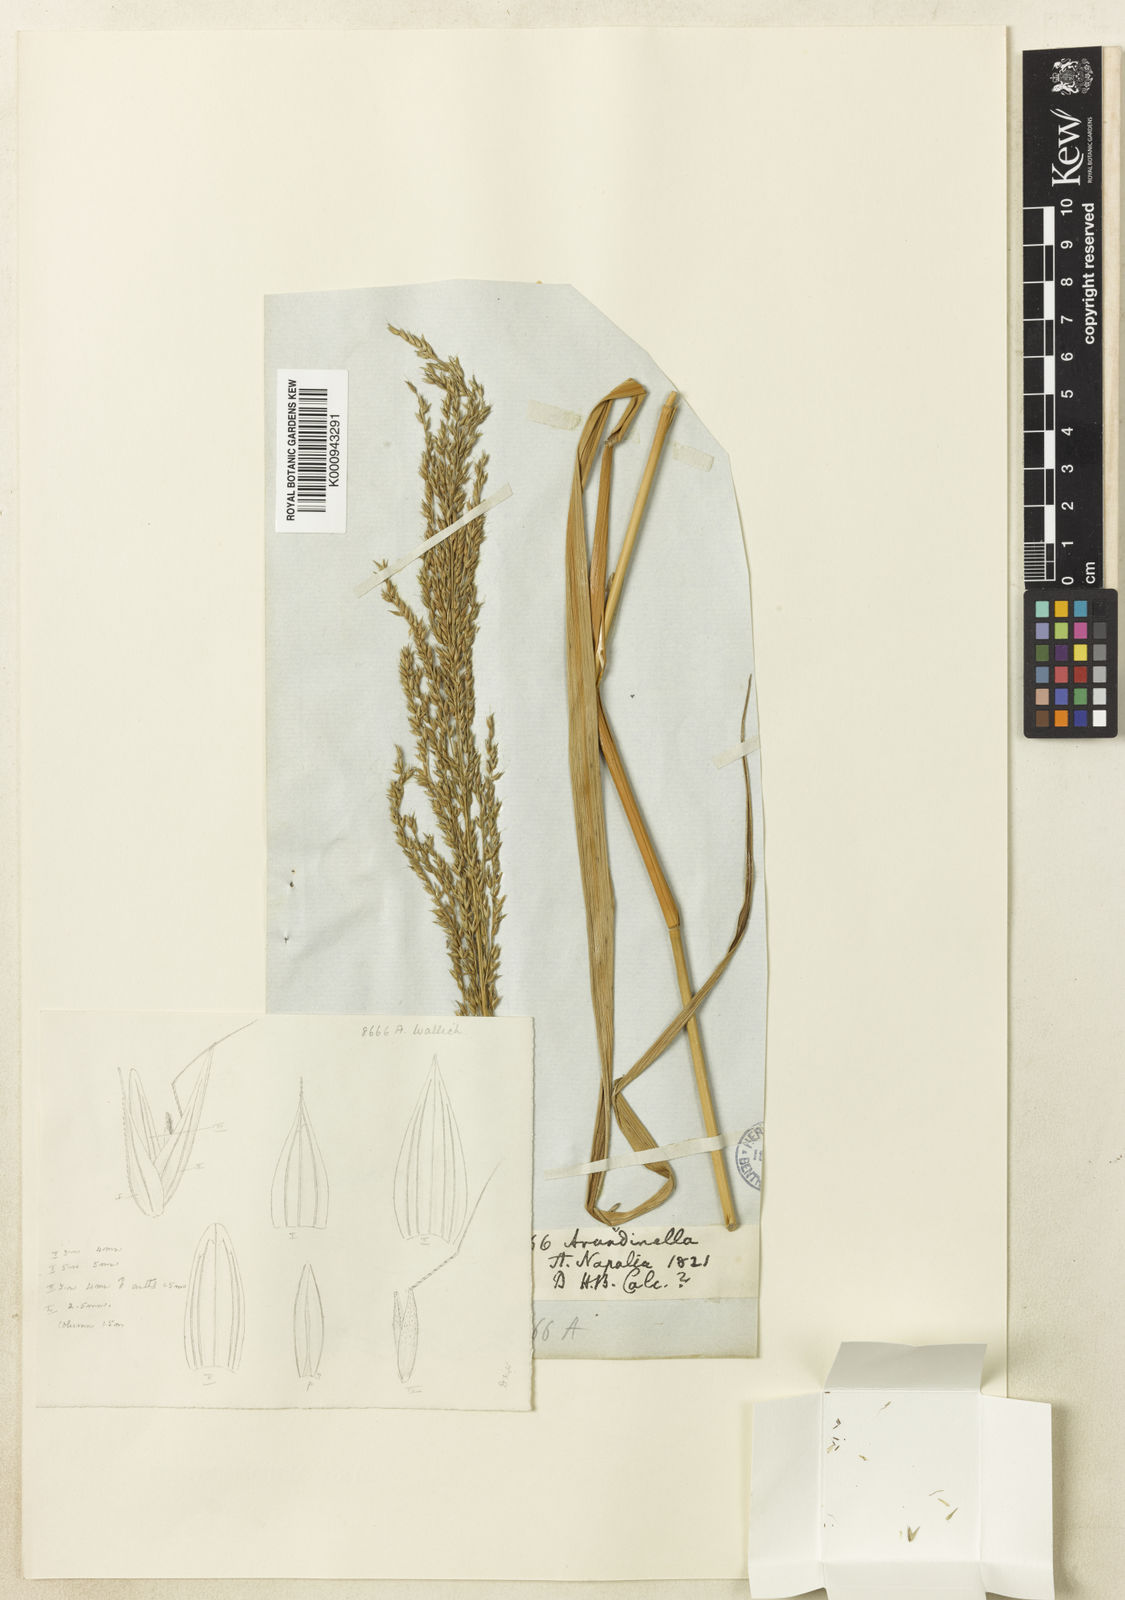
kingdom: Plantae
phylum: Tracheophyta
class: Liliopsida
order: Poales
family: Poaceae
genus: Arundinella
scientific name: Arundinella bengalensis
